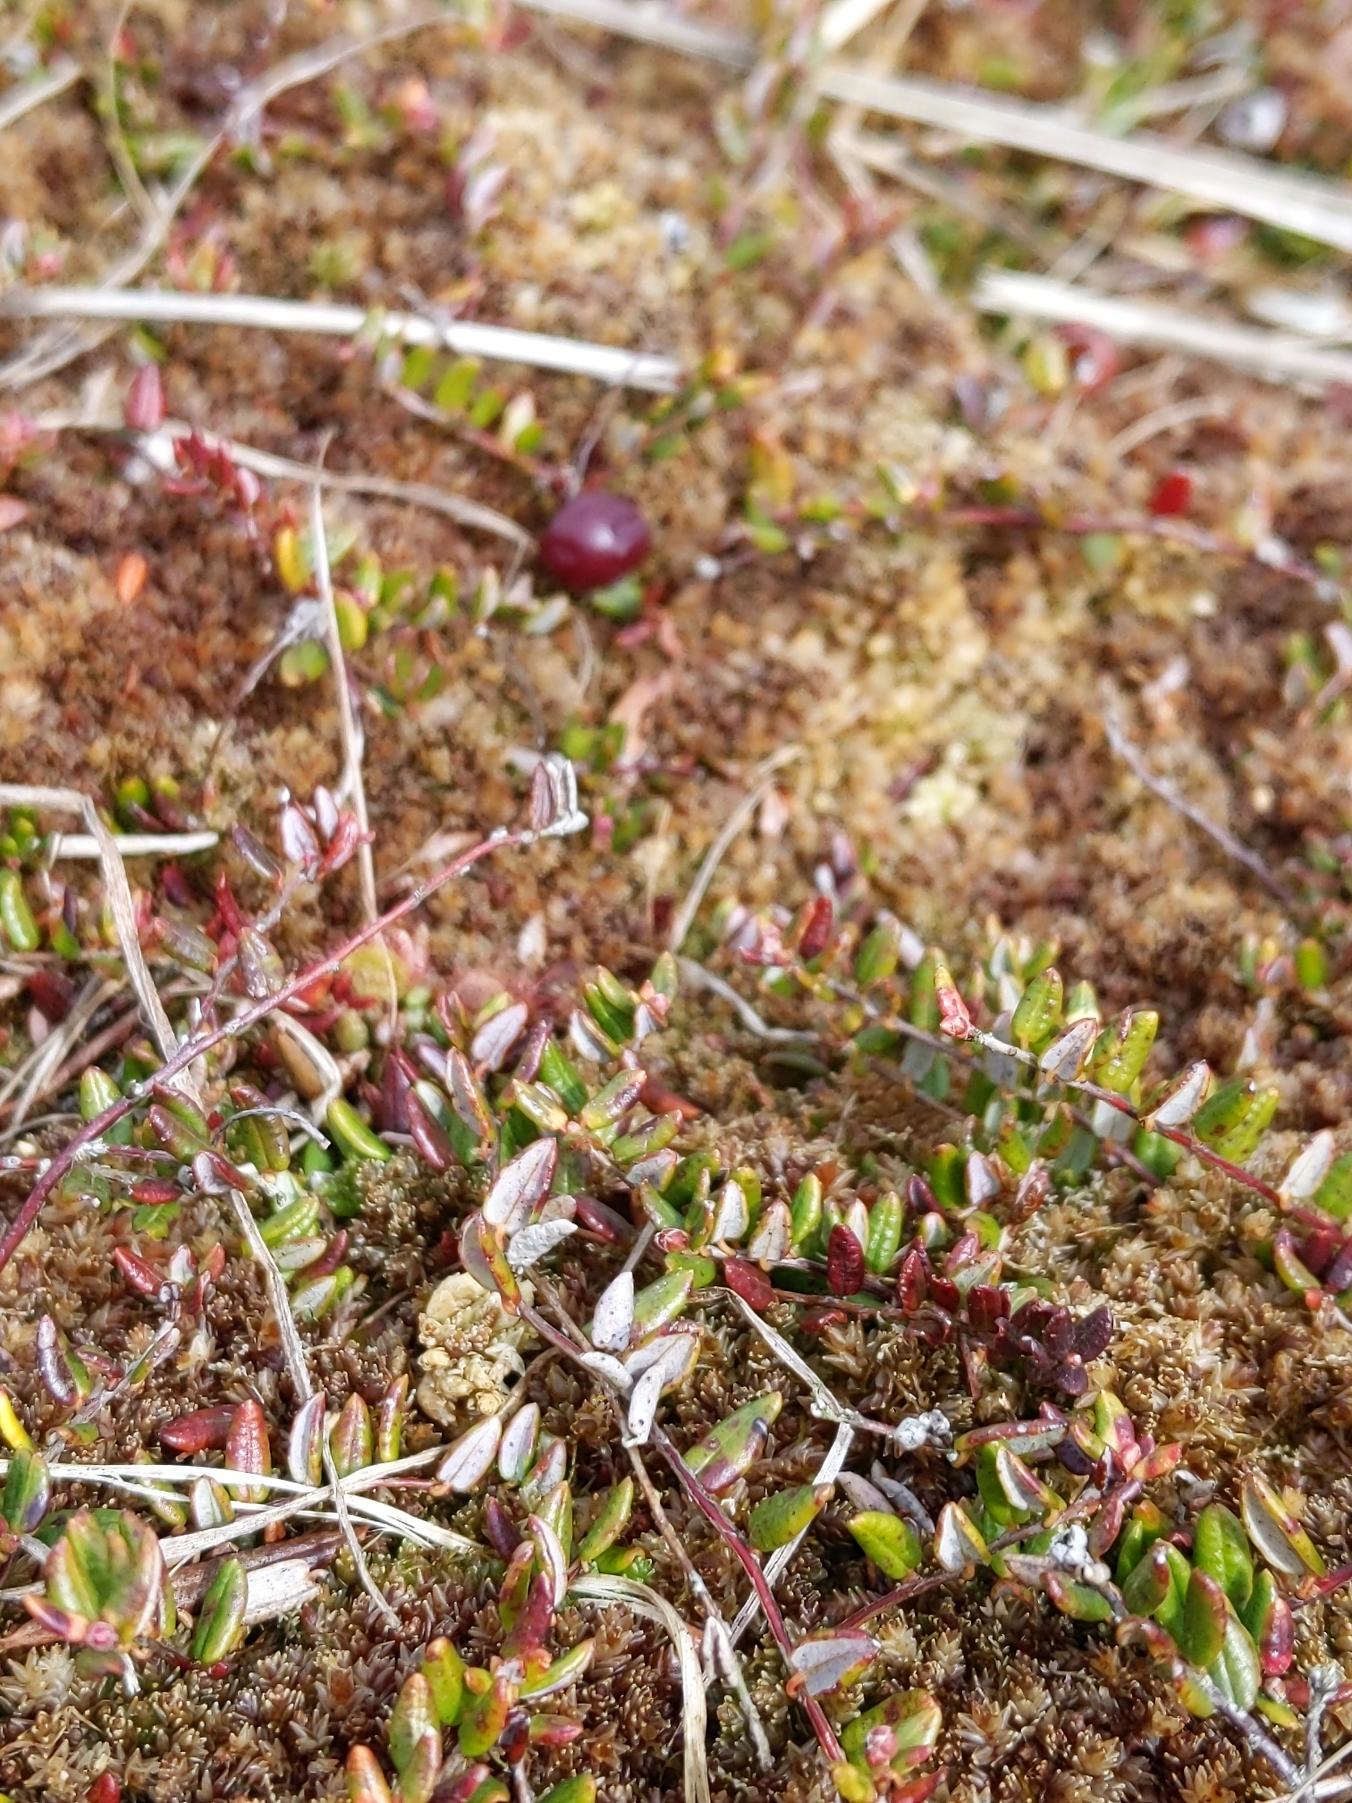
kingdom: Plantae
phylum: Tracheophyta
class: Magnoliopsida
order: Ericales
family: Ericaceae
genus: Vaccinium
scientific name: Vaccinium oxycoccos
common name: Tranebær
